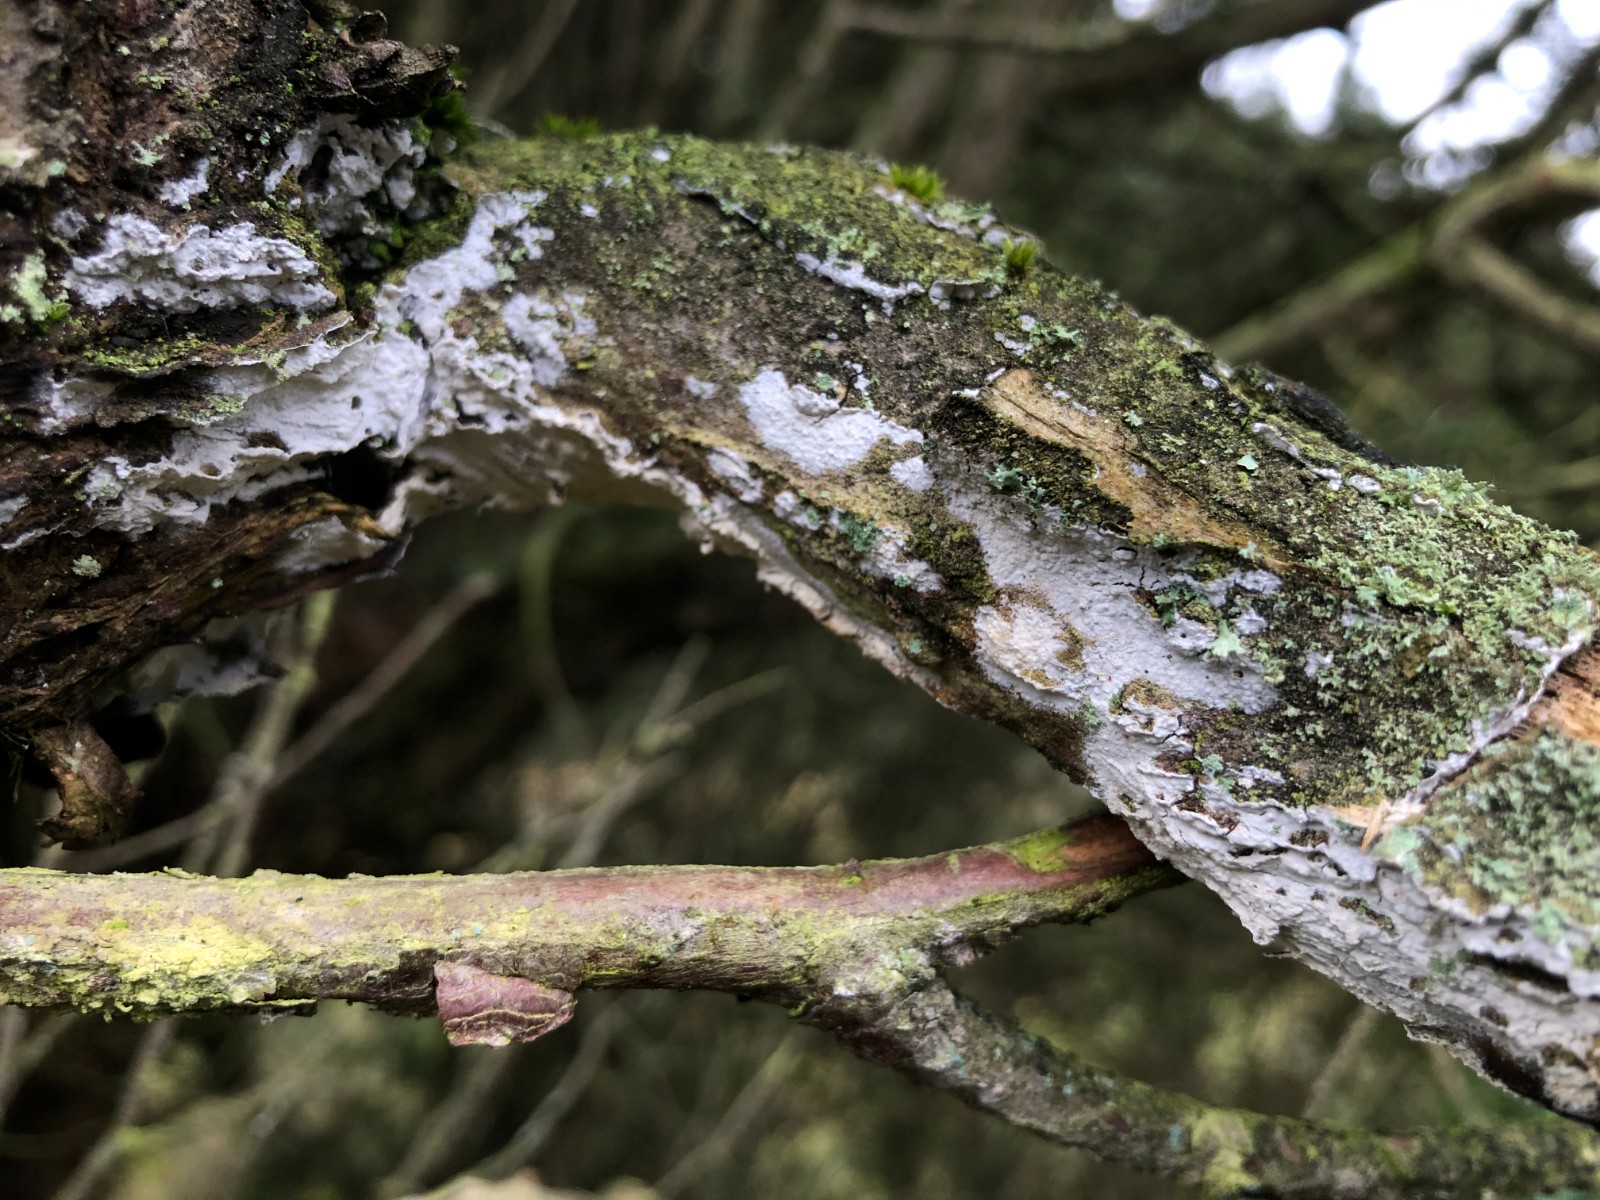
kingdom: Fungi
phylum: Basidiomycota
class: Agaricomycetes
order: Corticiales
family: Corticiaceae
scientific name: Corticiaceae
